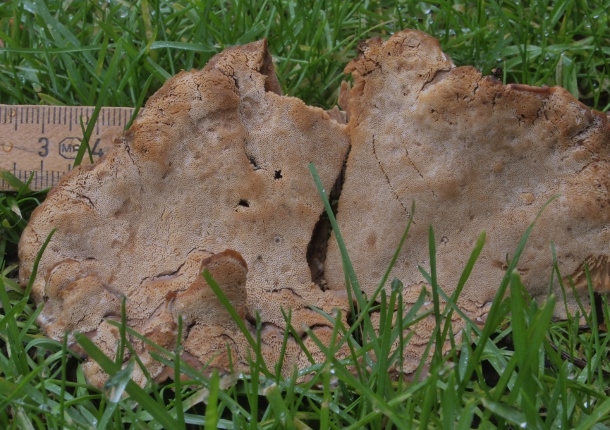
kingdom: Fungi
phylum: Basidiomycota
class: Agaricomycetes
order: Polyporales
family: Phanerochaetaceae
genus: Bjerkandera
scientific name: Bjerkandera fumosa
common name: grågul sodporesvamp
